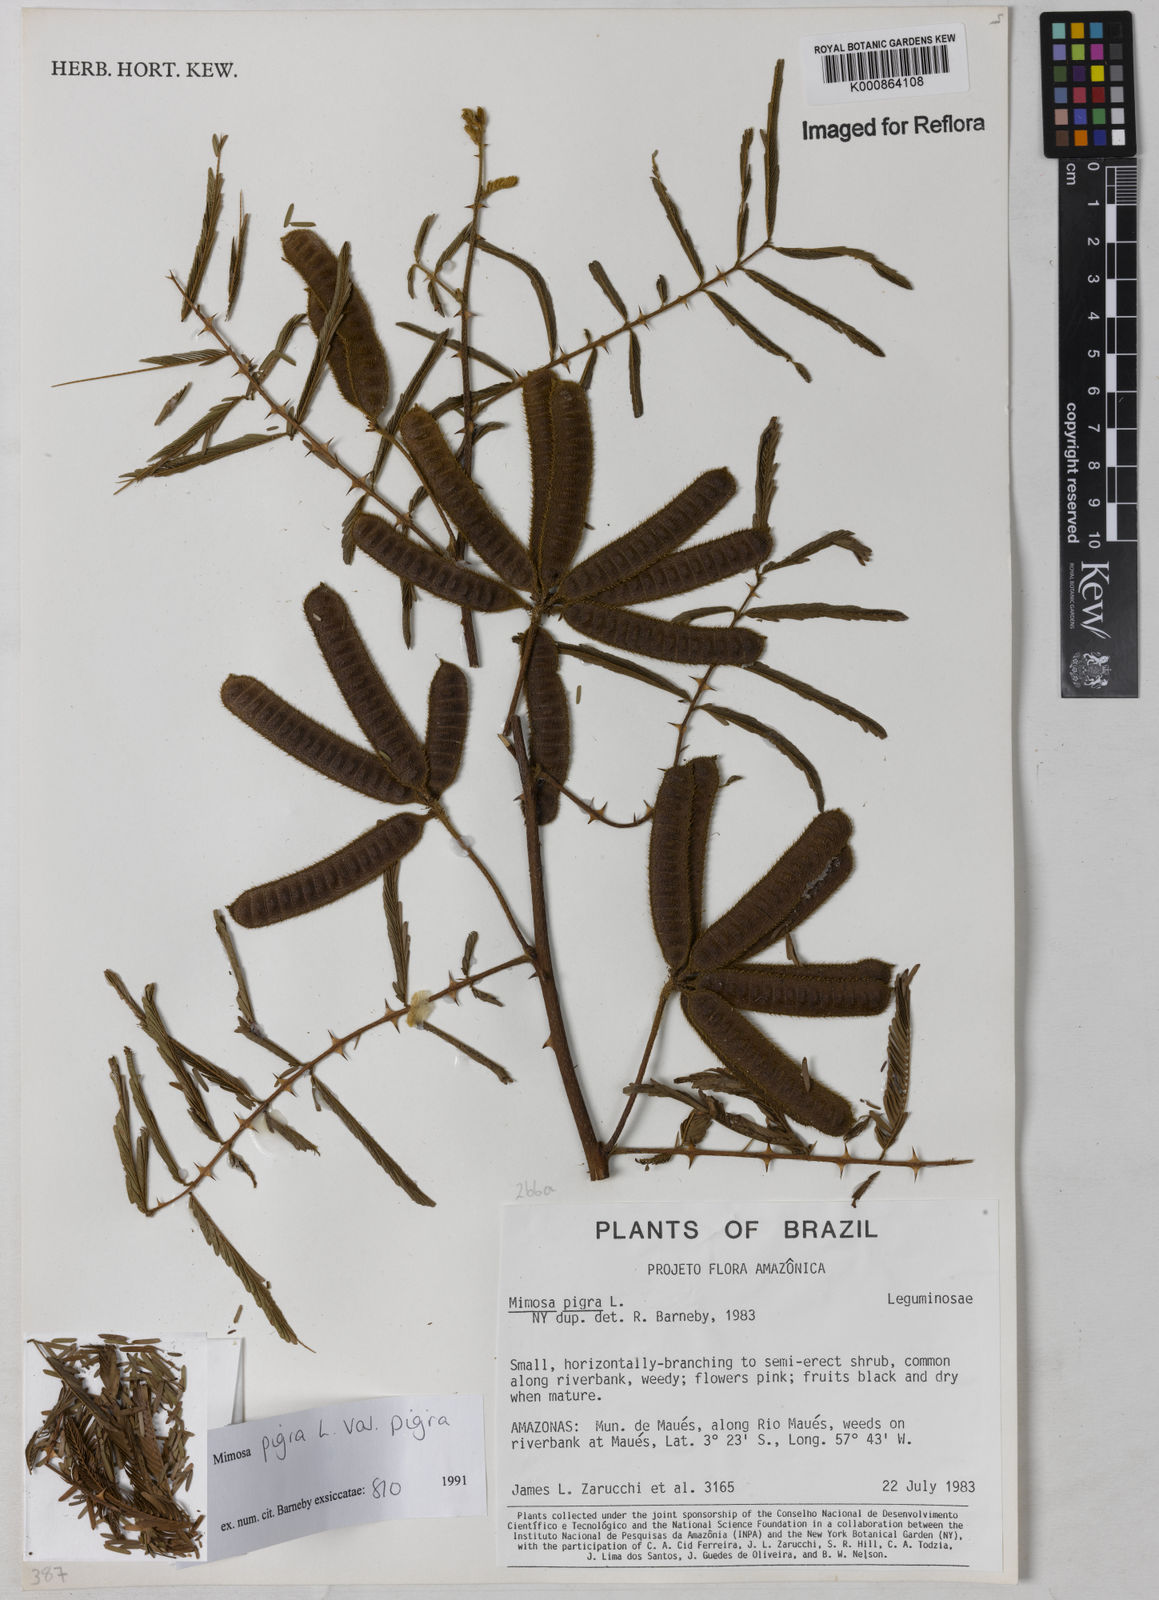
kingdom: Plantae
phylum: Tracheophyta
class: Magnoliopsida
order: Fabales
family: Fabaceae
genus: Mimosa
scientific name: Mimosa pigra
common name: Black mimosa
